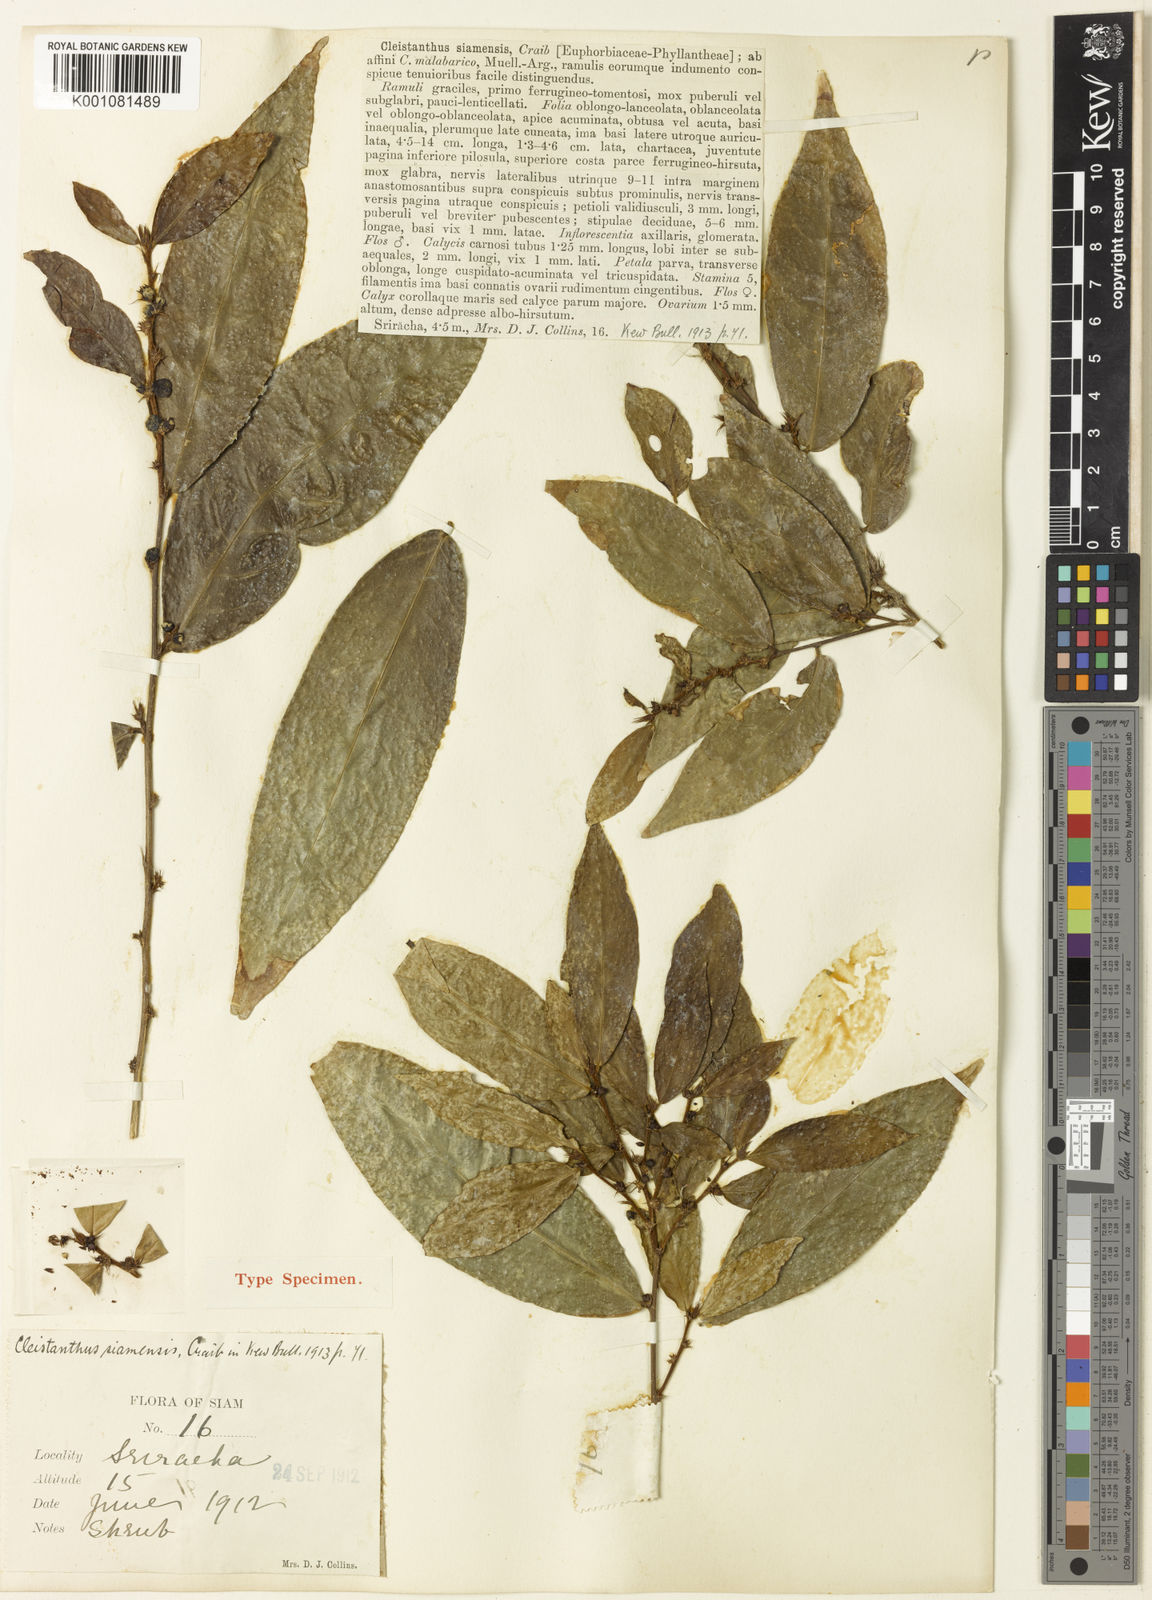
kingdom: Plantae
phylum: Tracheophyta
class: Magnoliopsida
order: Malpighiales
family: Phyllanthaceae
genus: Cleistanthus
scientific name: Cleistanthus hirsutulus
